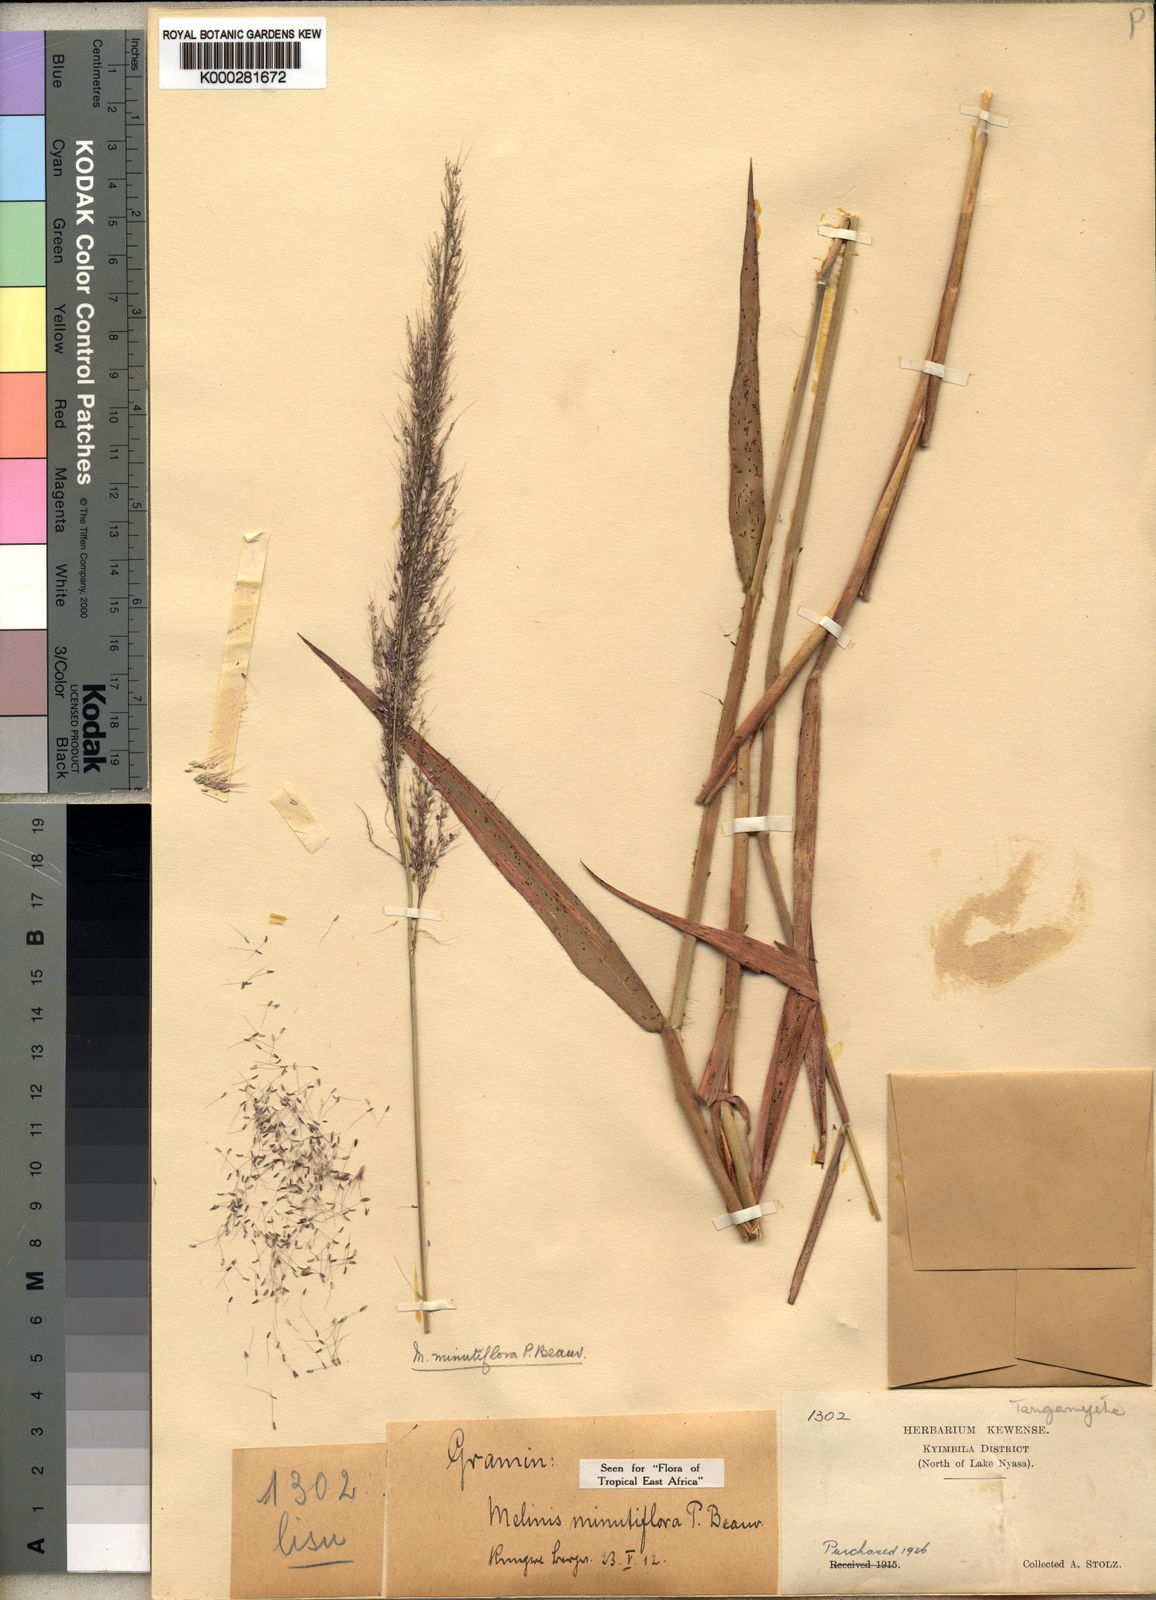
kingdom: Plantae
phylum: Tracheophyta
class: Liliopsida
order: Poales
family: Poaceae
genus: Melinis
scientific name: Melinis minutiflora
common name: Molassesgrass
